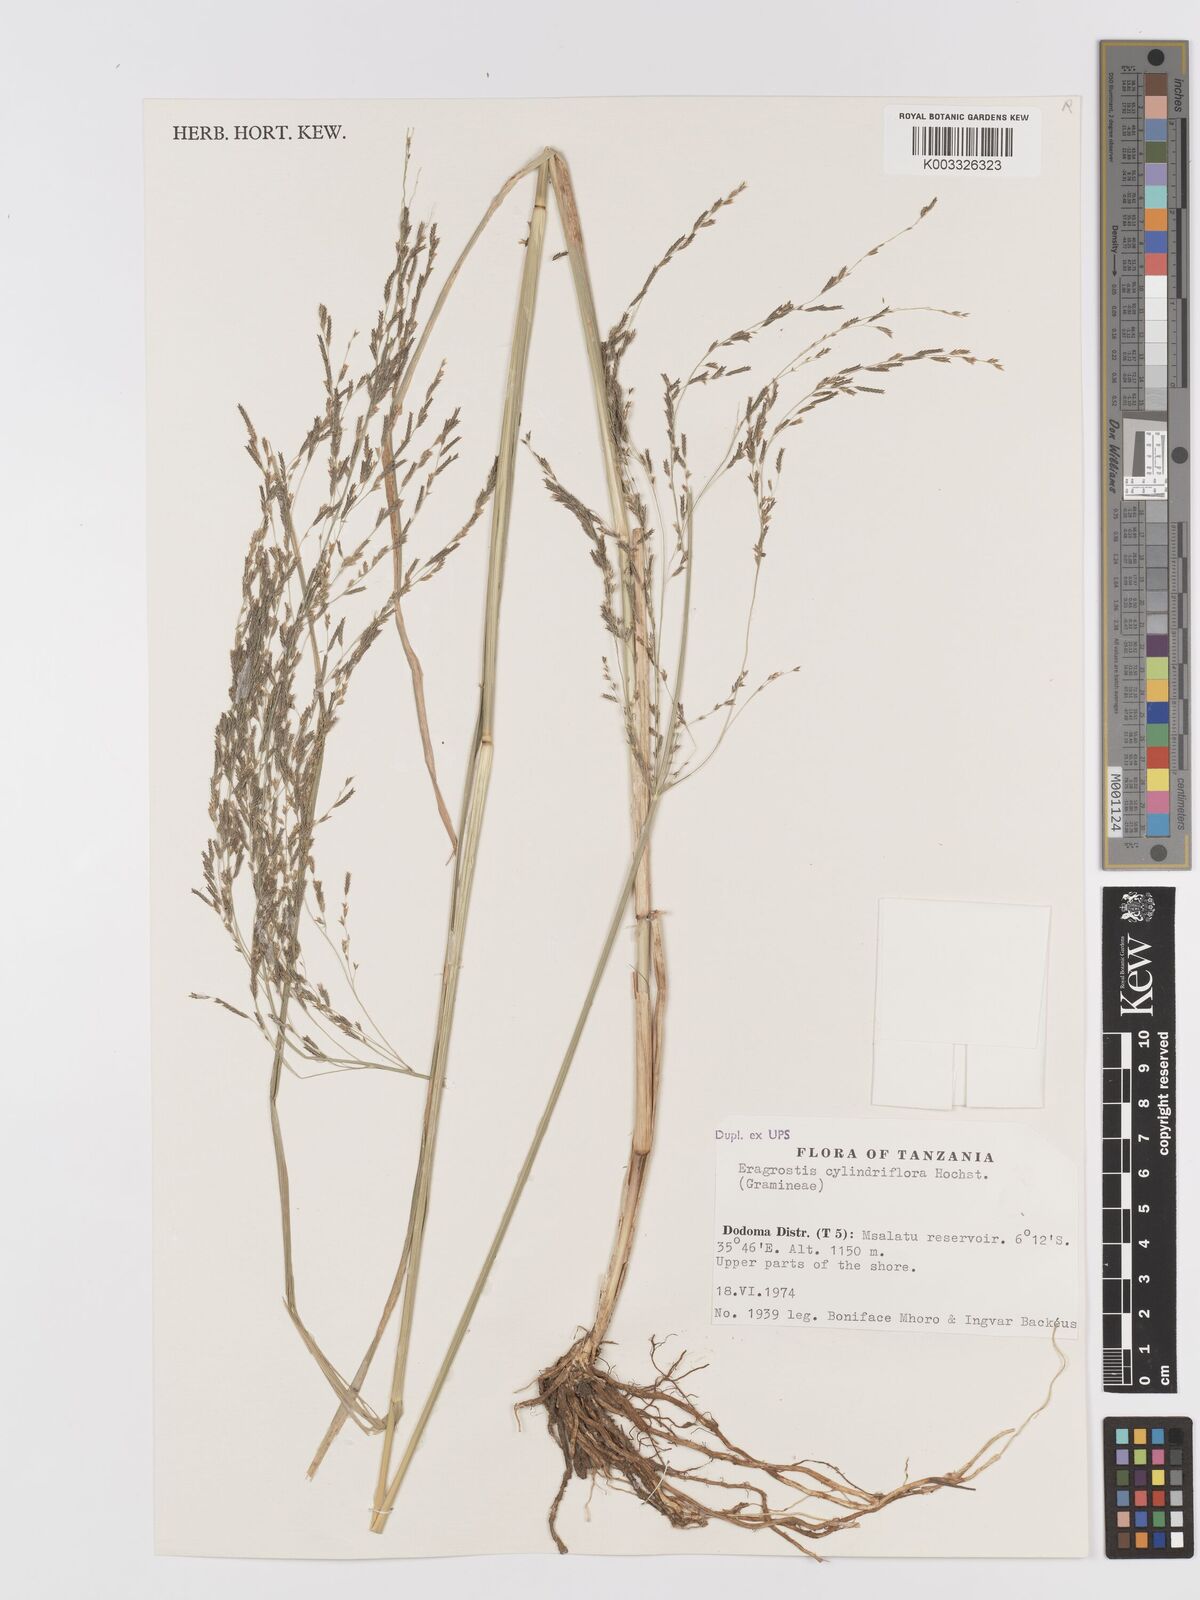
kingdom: Plantae
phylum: Tracheophyta
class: Liliopsida
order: Poales
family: Poaceae
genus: Eragrostis
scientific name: Eragrostis cylindriflora
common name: Cylinderflower lovegrass
